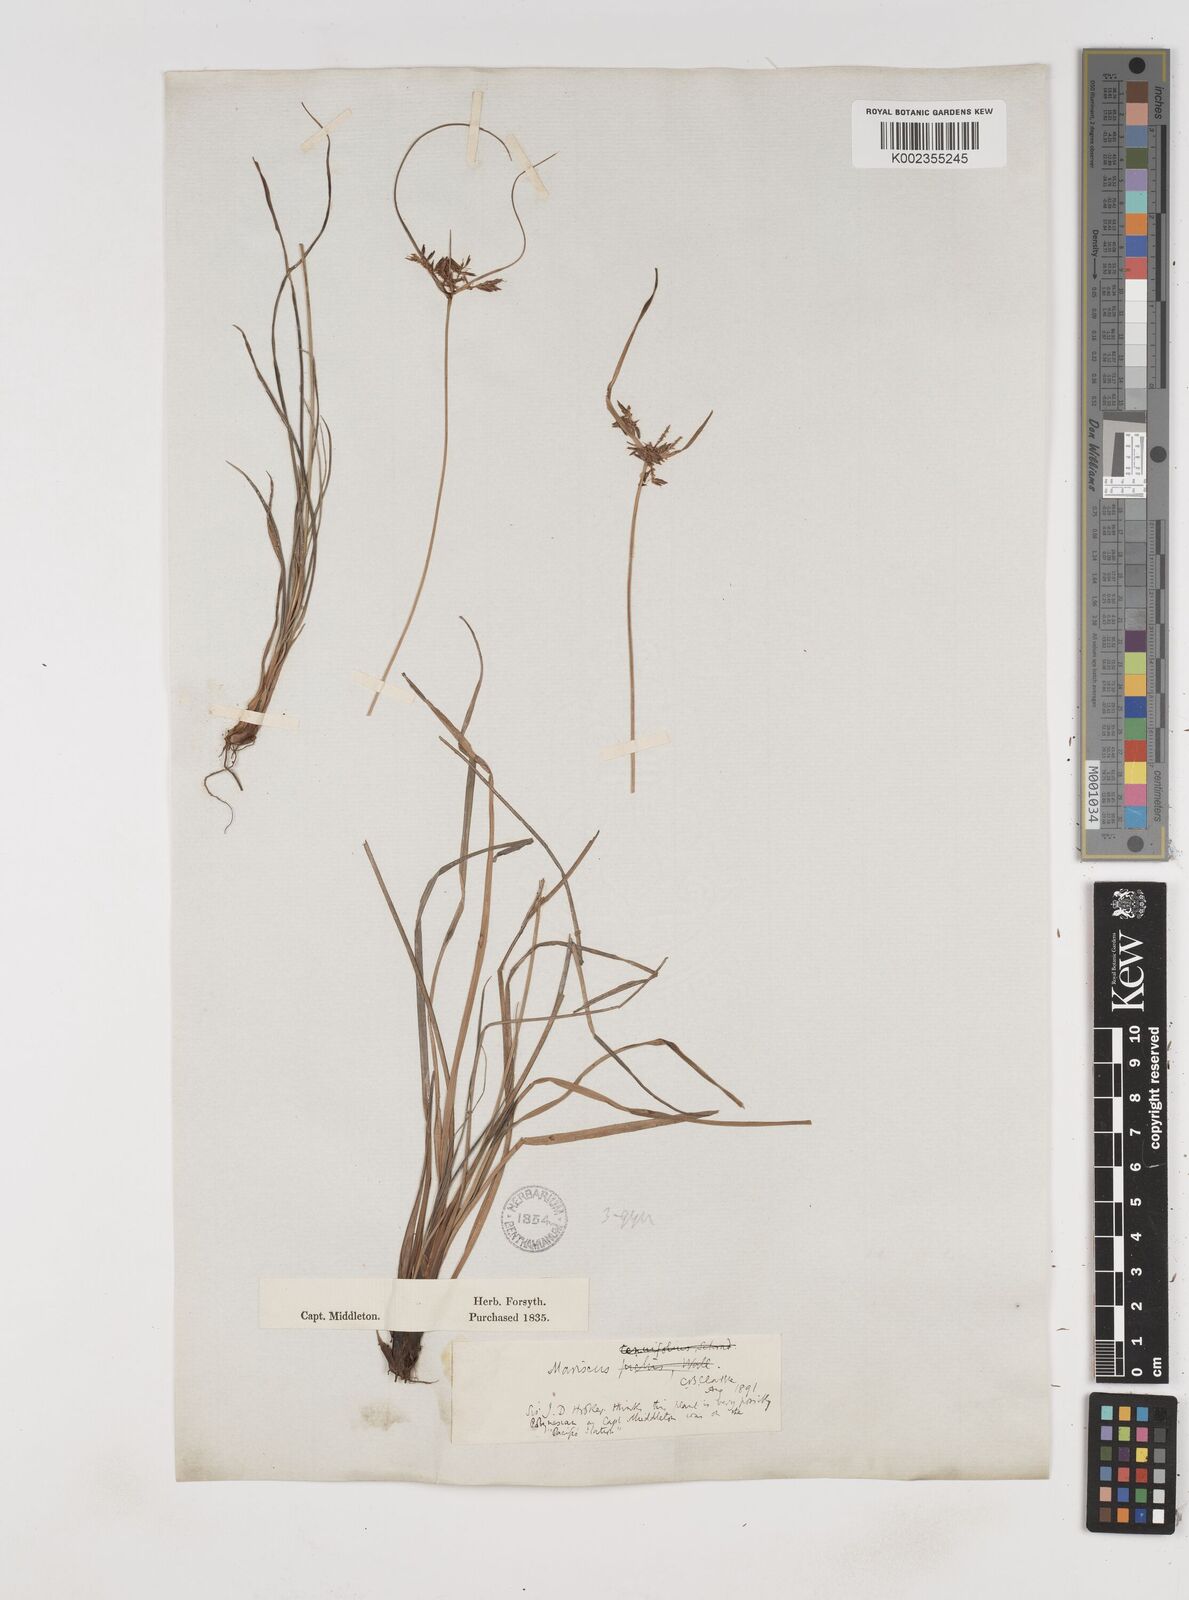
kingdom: Plantae
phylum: Tracheophyta
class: Liliopsida
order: Poales
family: Cyperaceae
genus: Cyperus
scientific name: Cyperus
